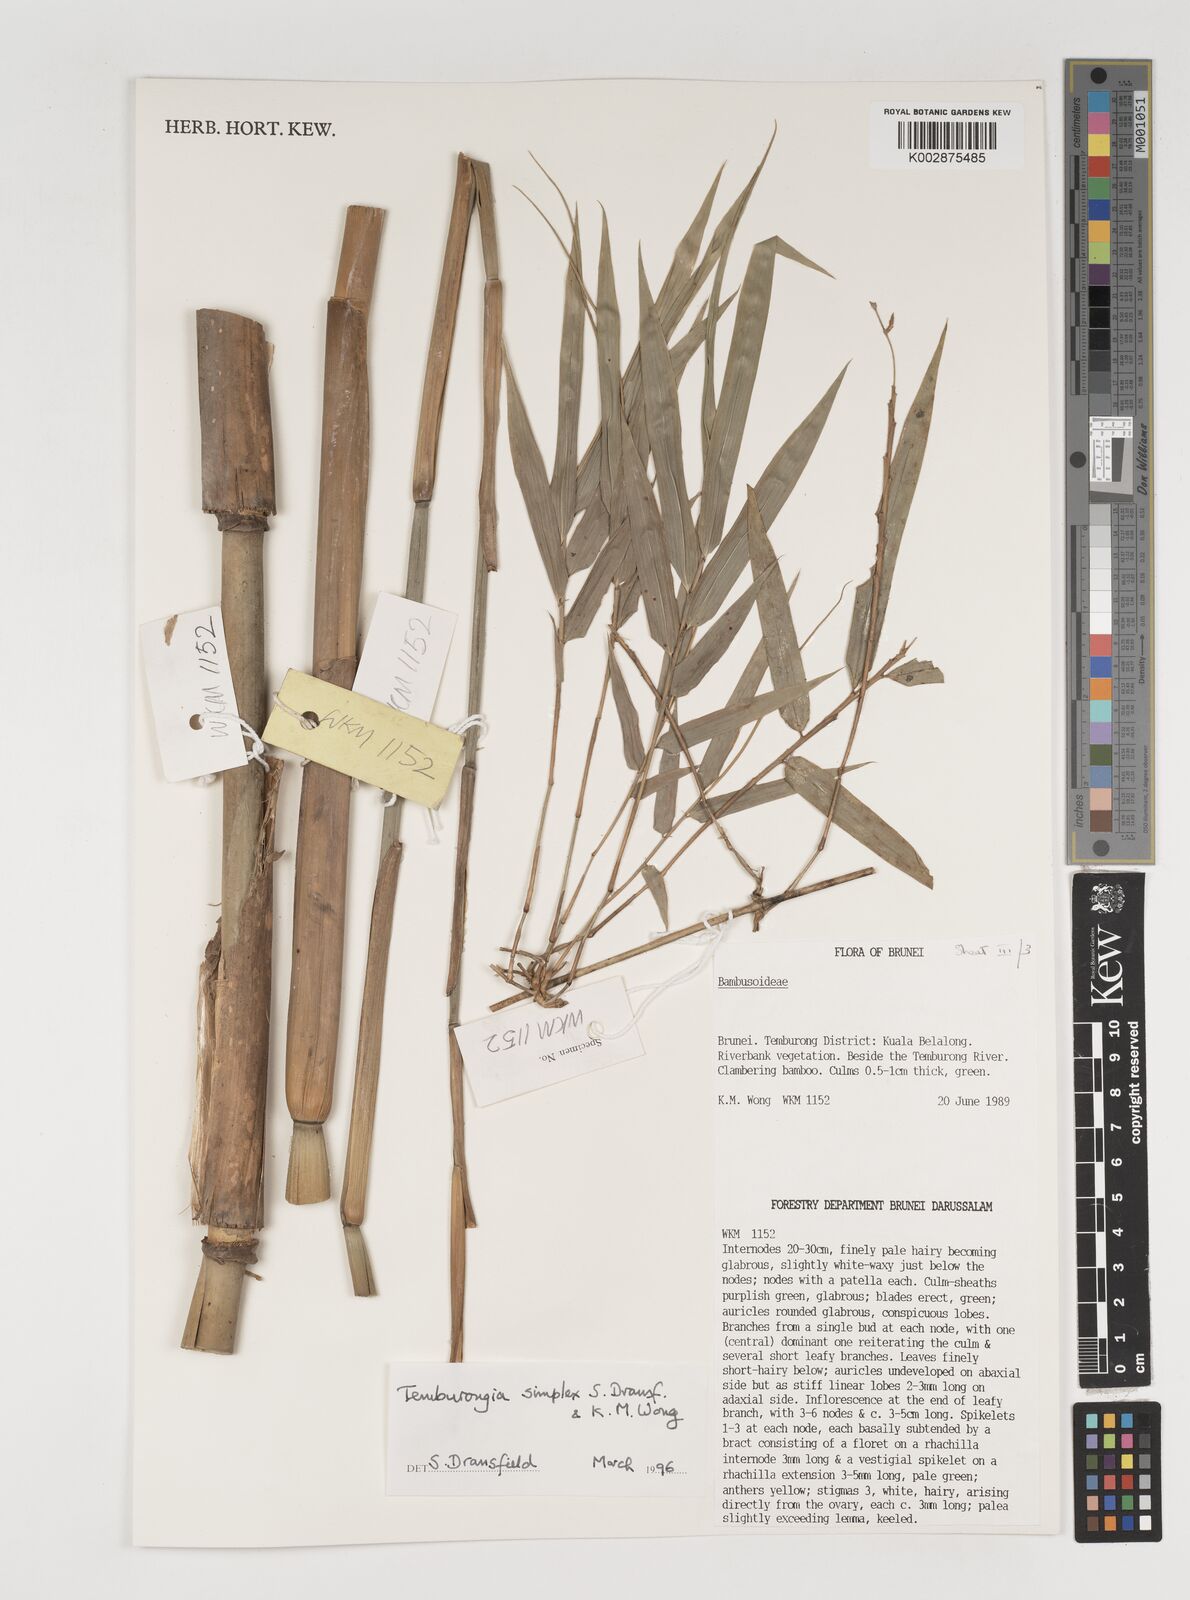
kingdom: Plantae
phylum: Tracheophyta
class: Liliopsida
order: Poales
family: Poaceae
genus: Temburongia
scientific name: Temburongia
